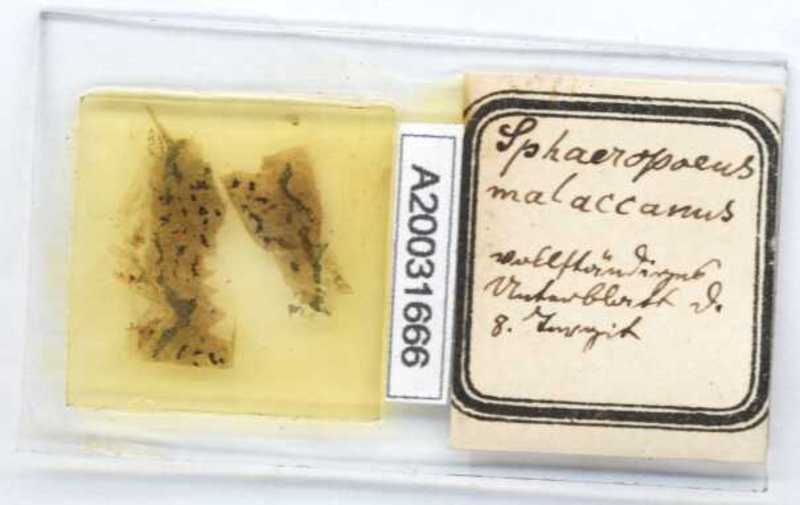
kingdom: Animalia
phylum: Arthropoda
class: Diplopoda
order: Sphaerotheriida
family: Zephroniidae
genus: Sphaeropoeus
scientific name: Sphaeropoeus malaccanus
